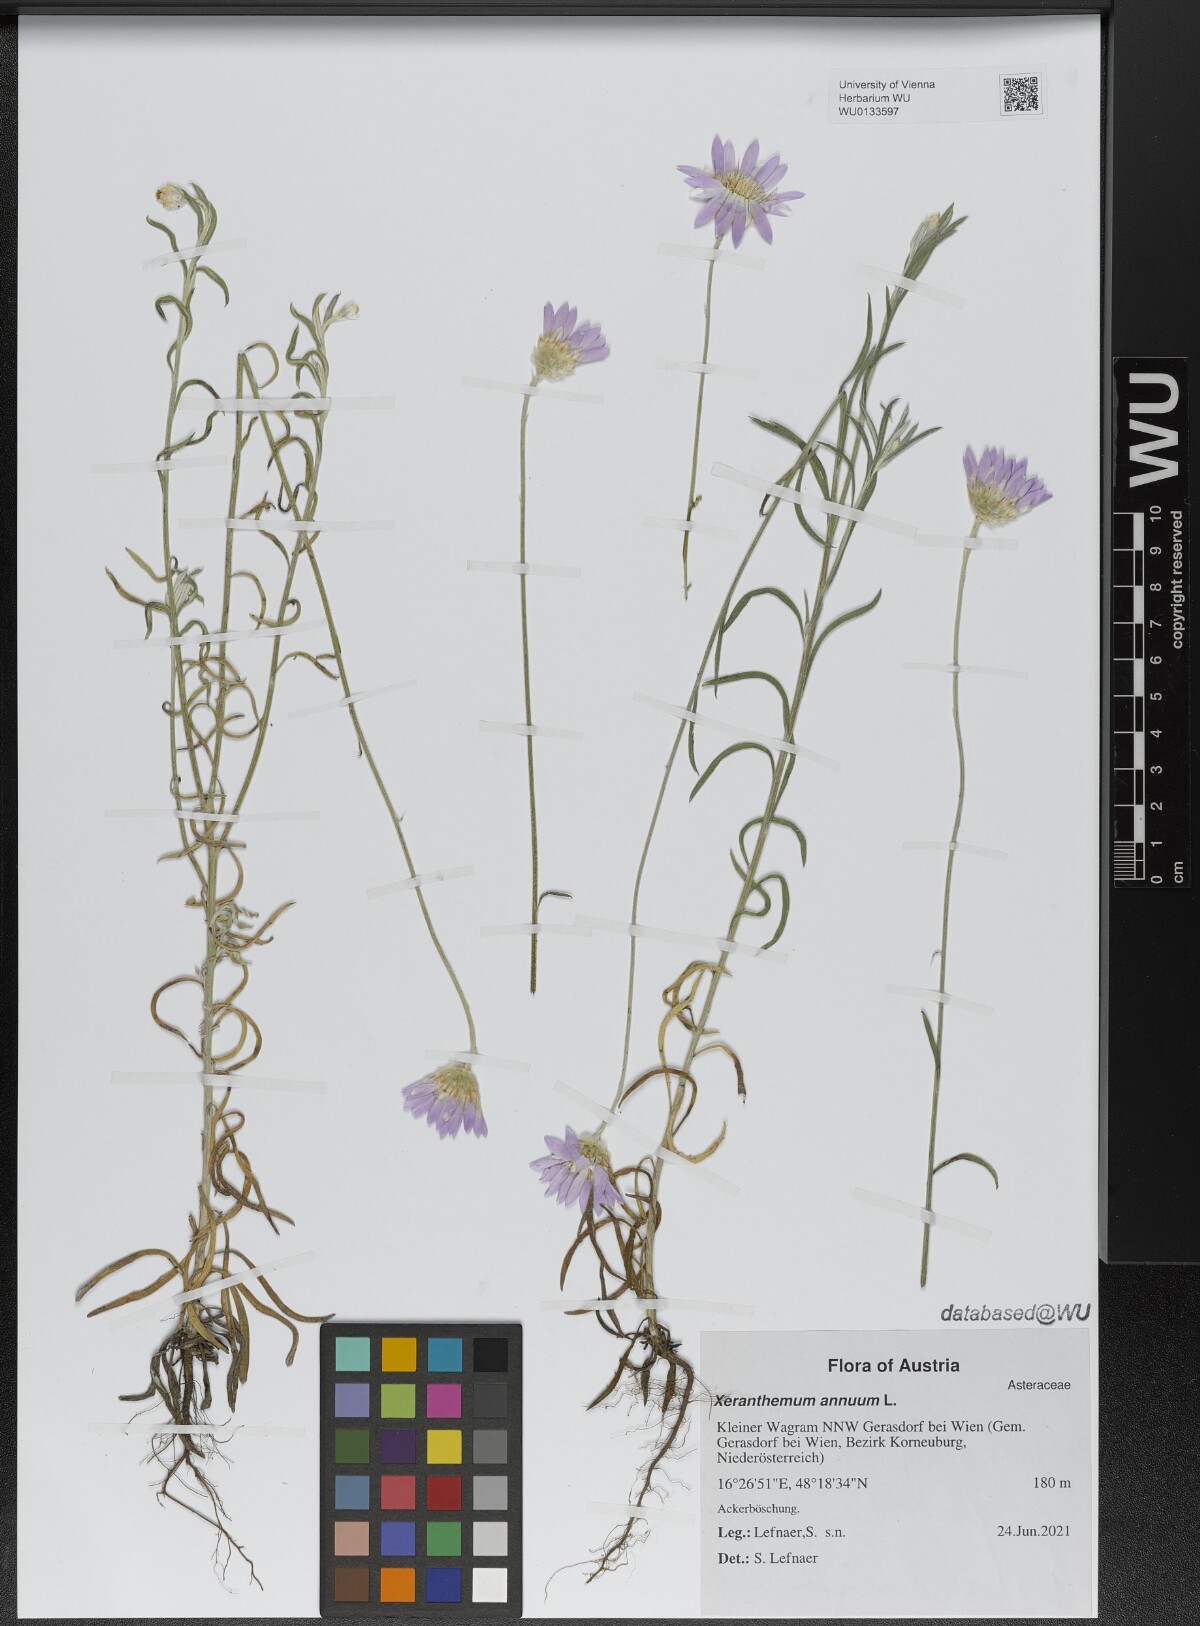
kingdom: Plantae
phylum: Tracheophyta
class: Magnoliopsida
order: Asterales
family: Asteraceae
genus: Xeranthemum
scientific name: Xeranthemum annuum
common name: Immortelle
